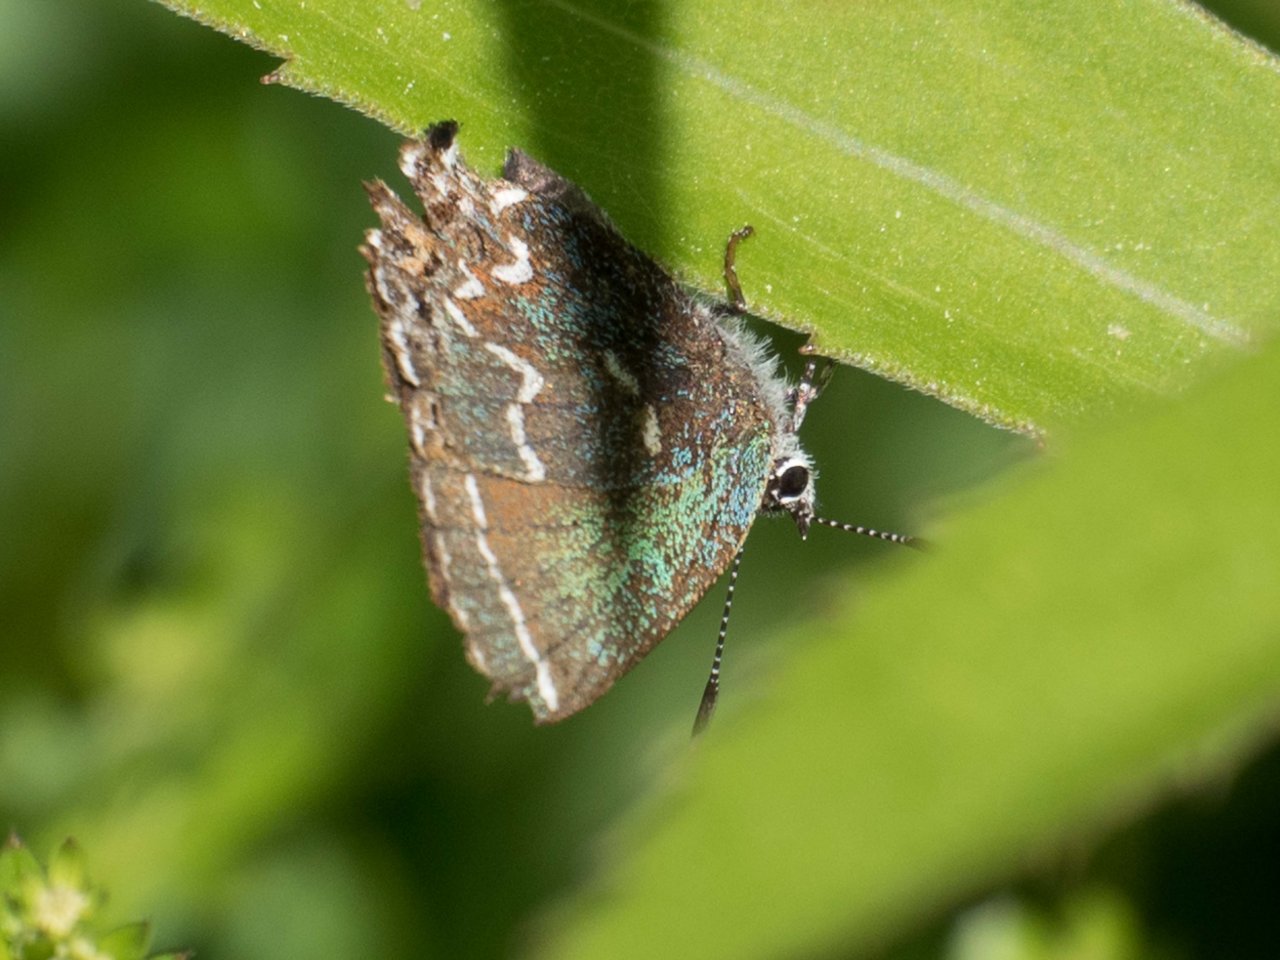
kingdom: Animalia
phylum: Arthropoda
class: Insecta
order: Lepidoptera
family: Lycaenidae
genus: Mitoura
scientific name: Mitoura gryneus
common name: Juniper Hairstreak
